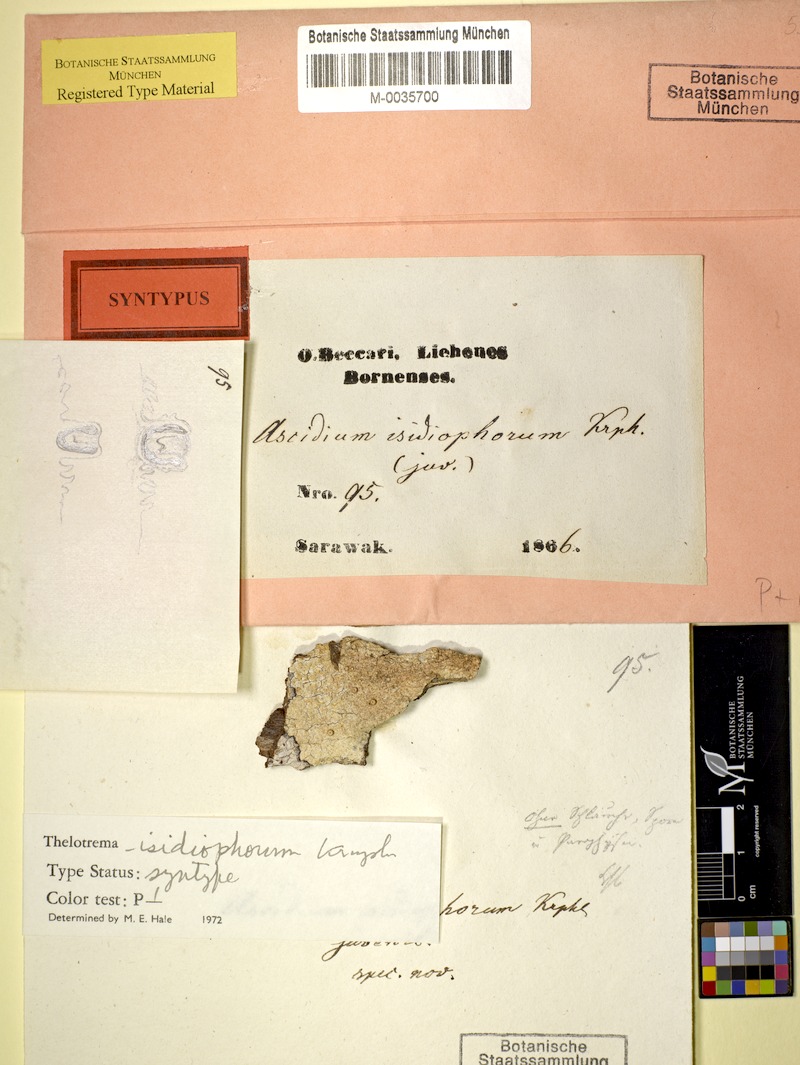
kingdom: Fungi
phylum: Ascomycota
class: Lecanoromycetes
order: Ostropales
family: Graphidaceae
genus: Thelotrema
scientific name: Thelotrema isidiophorum
